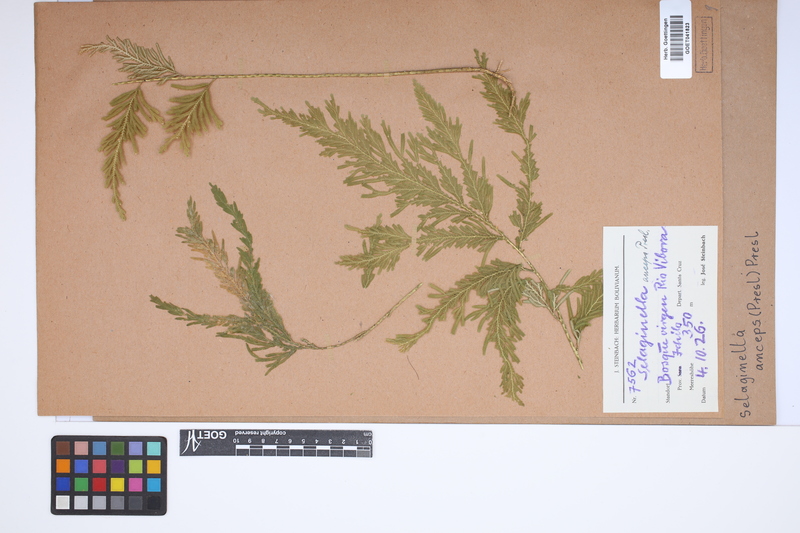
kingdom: Plantae
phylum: Tracheophyta
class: Lycopodiopsida
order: Selaginellales
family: Selaginellaceae
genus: Selaginella
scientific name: Selaginella anceps
